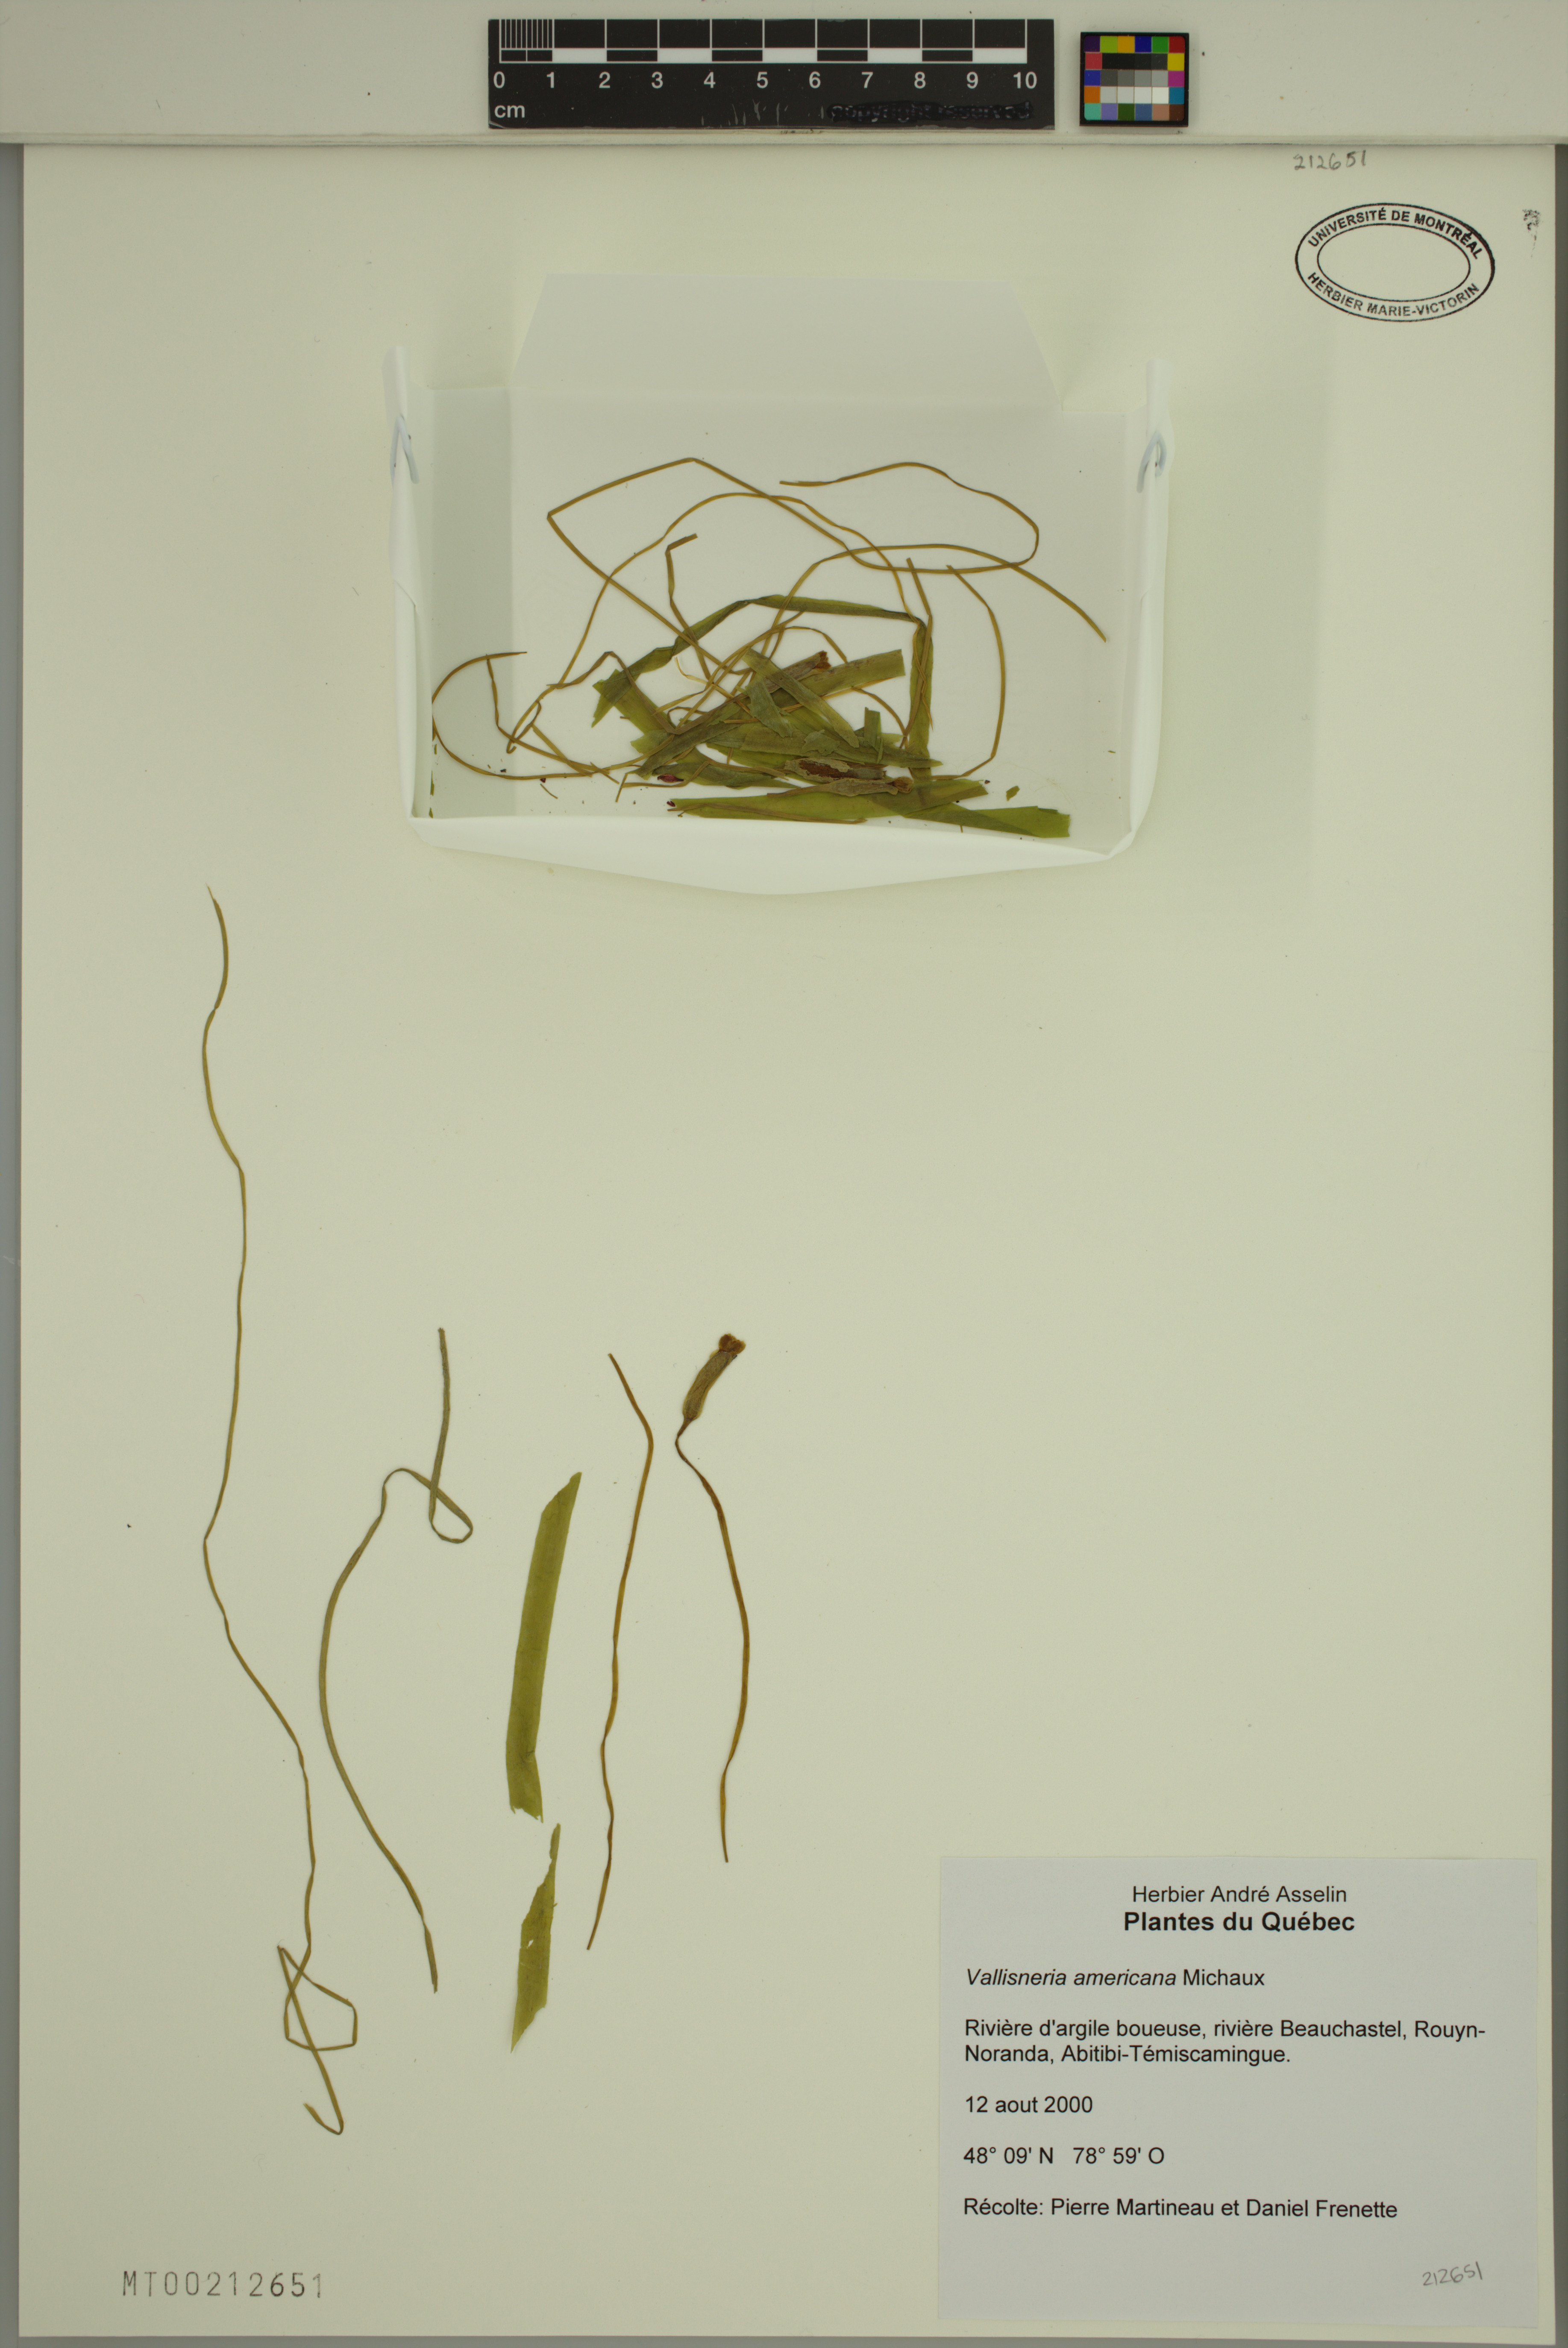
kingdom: Plantae
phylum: Tracheophyta
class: Liliopsida
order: Alismatales
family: Hydrocharitaceae
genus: Vallisneria
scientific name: Vallisneria americana
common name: American eelgrass
